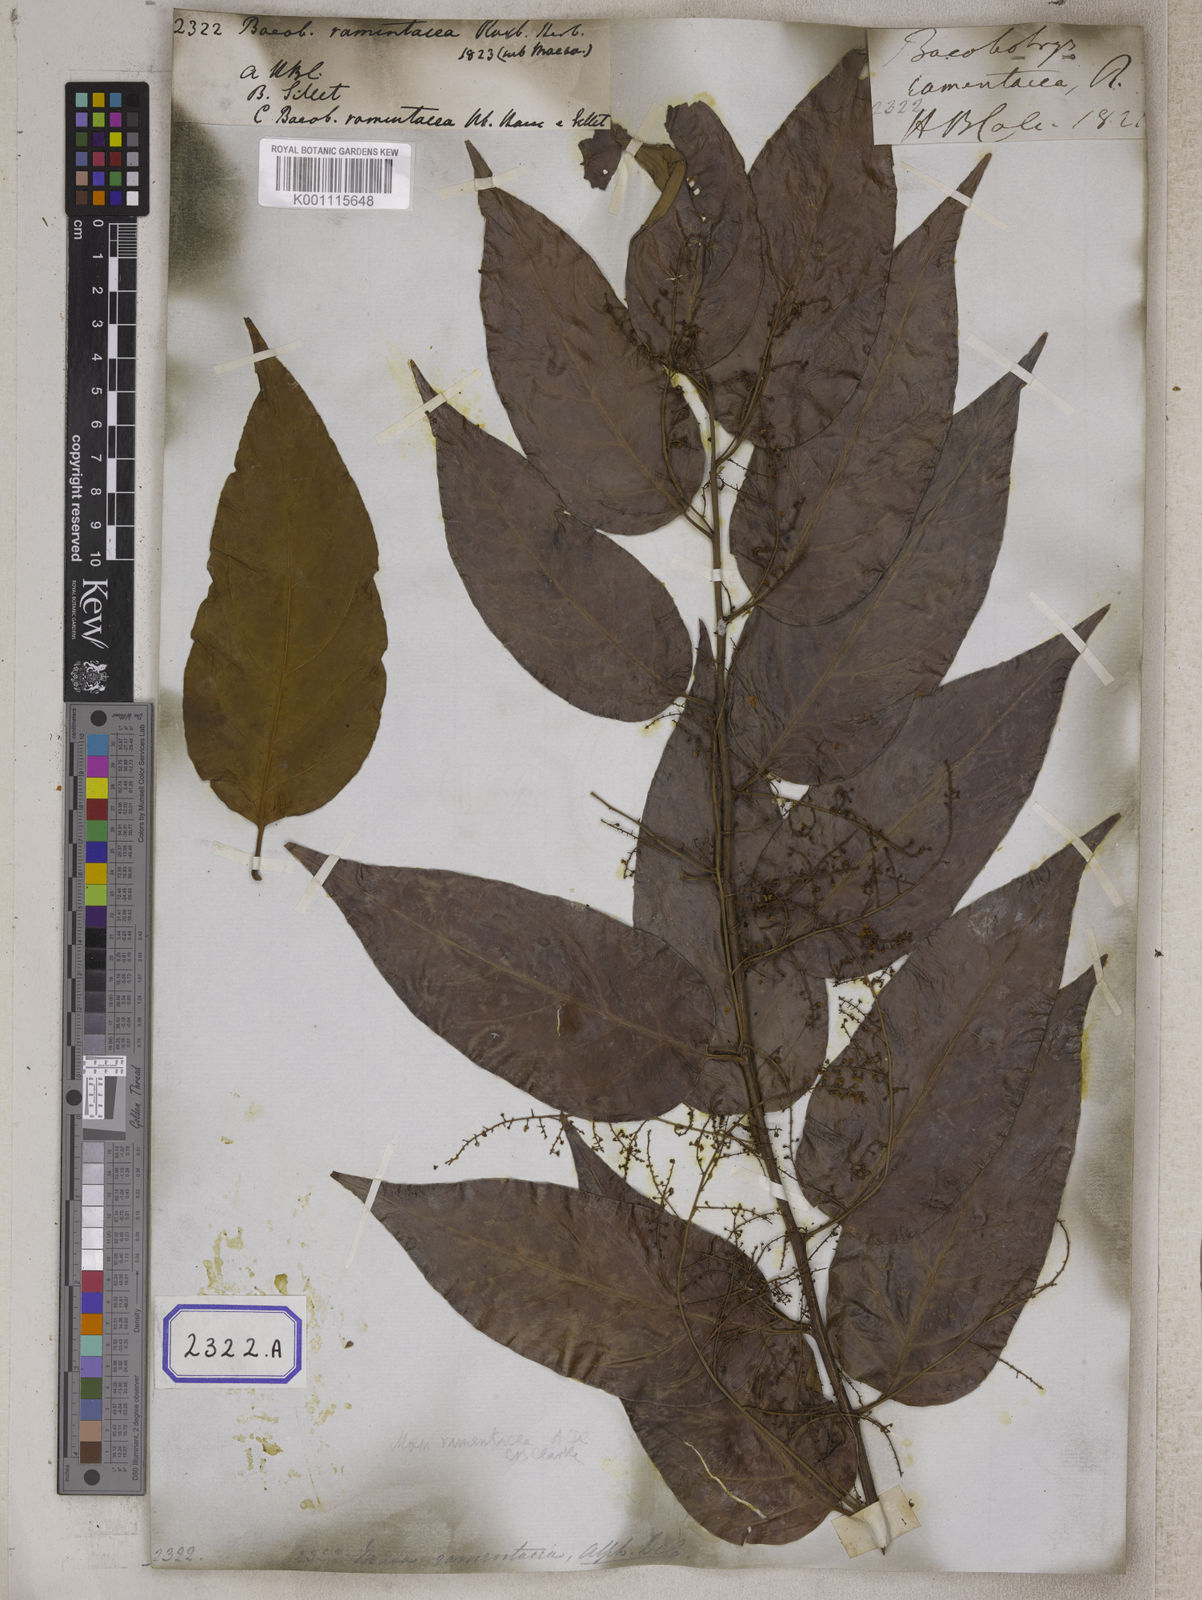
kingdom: Plantae
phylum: Tracheophyta
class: Magnoliopsida
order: Ericales
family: Primulaceae
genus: Maesa
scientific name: Maesa ramentacea
